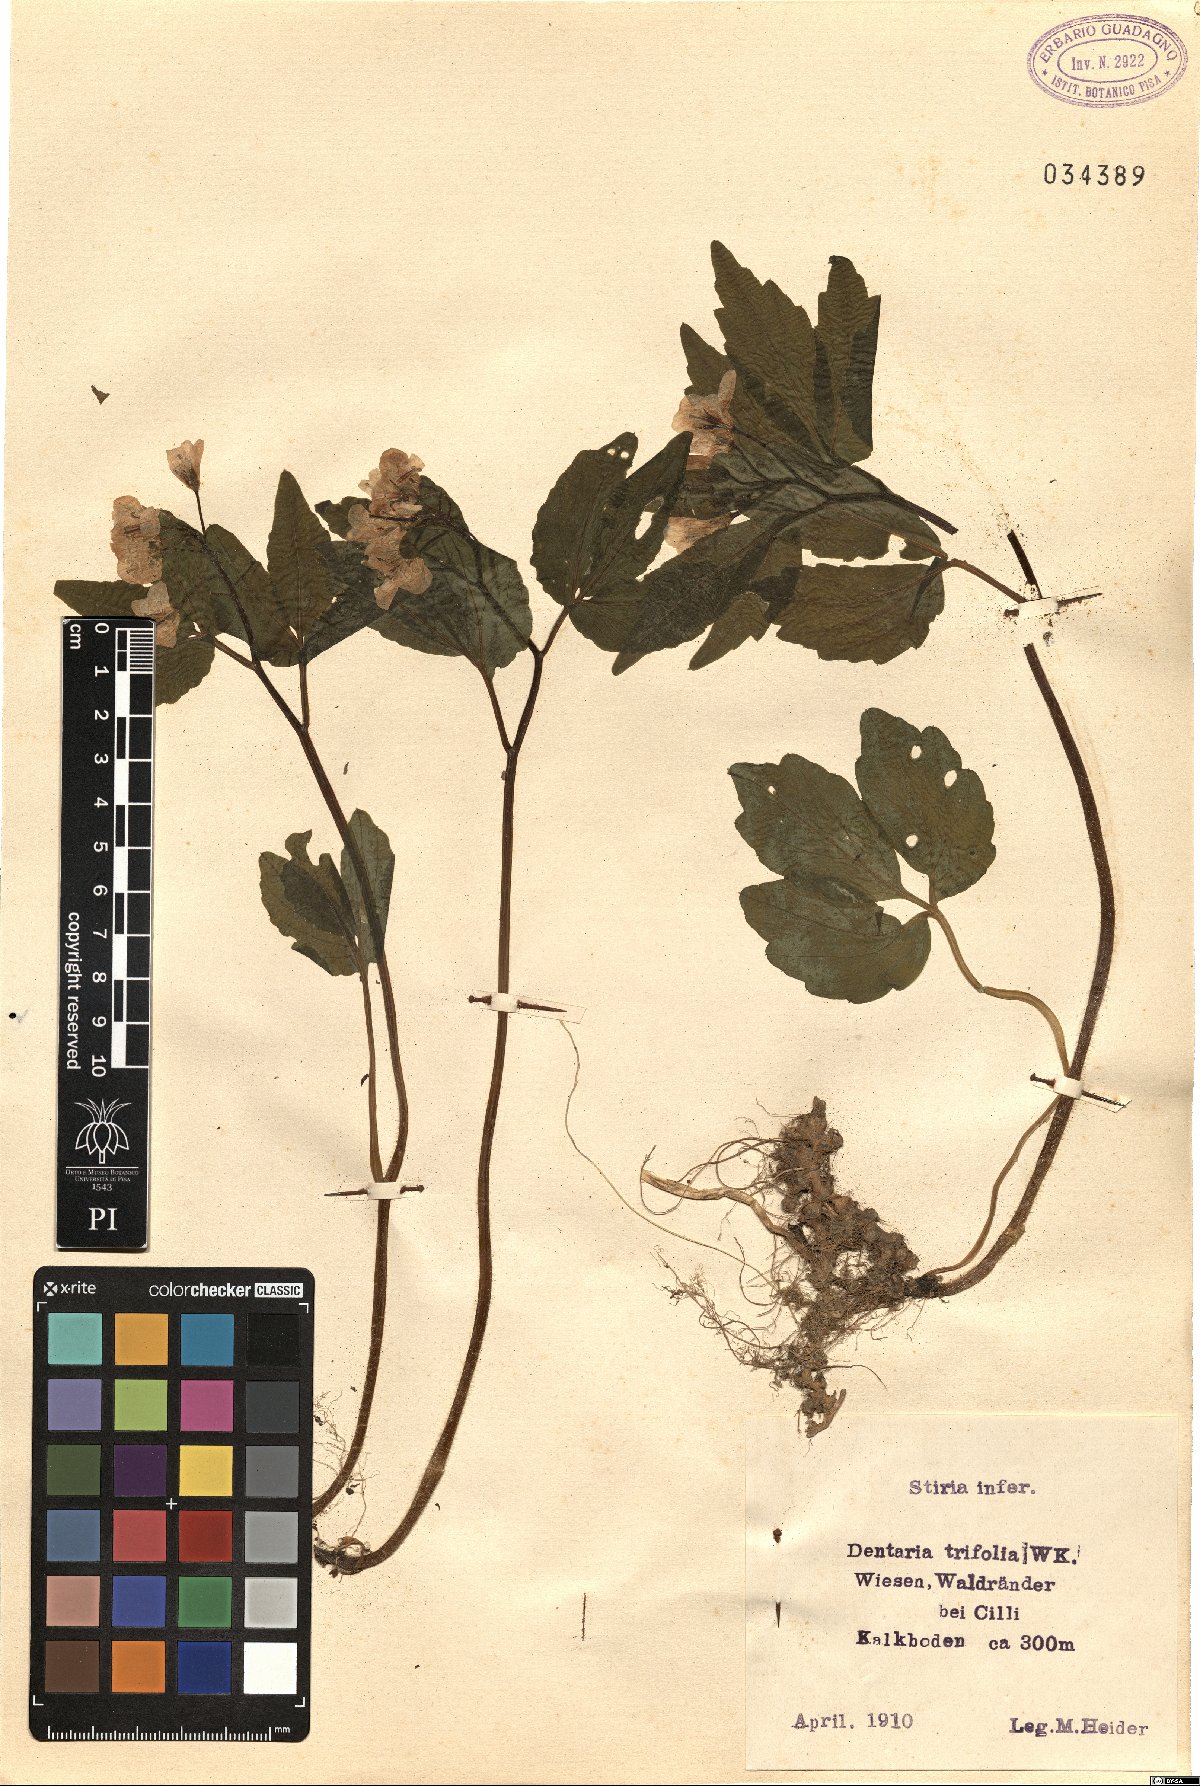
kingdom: Plantae
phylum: Tracheophyta
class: Magnoliopsida
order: Brassicales
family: Brassicaceae
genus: Cardamine
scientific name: Cardamine waldsteinii
